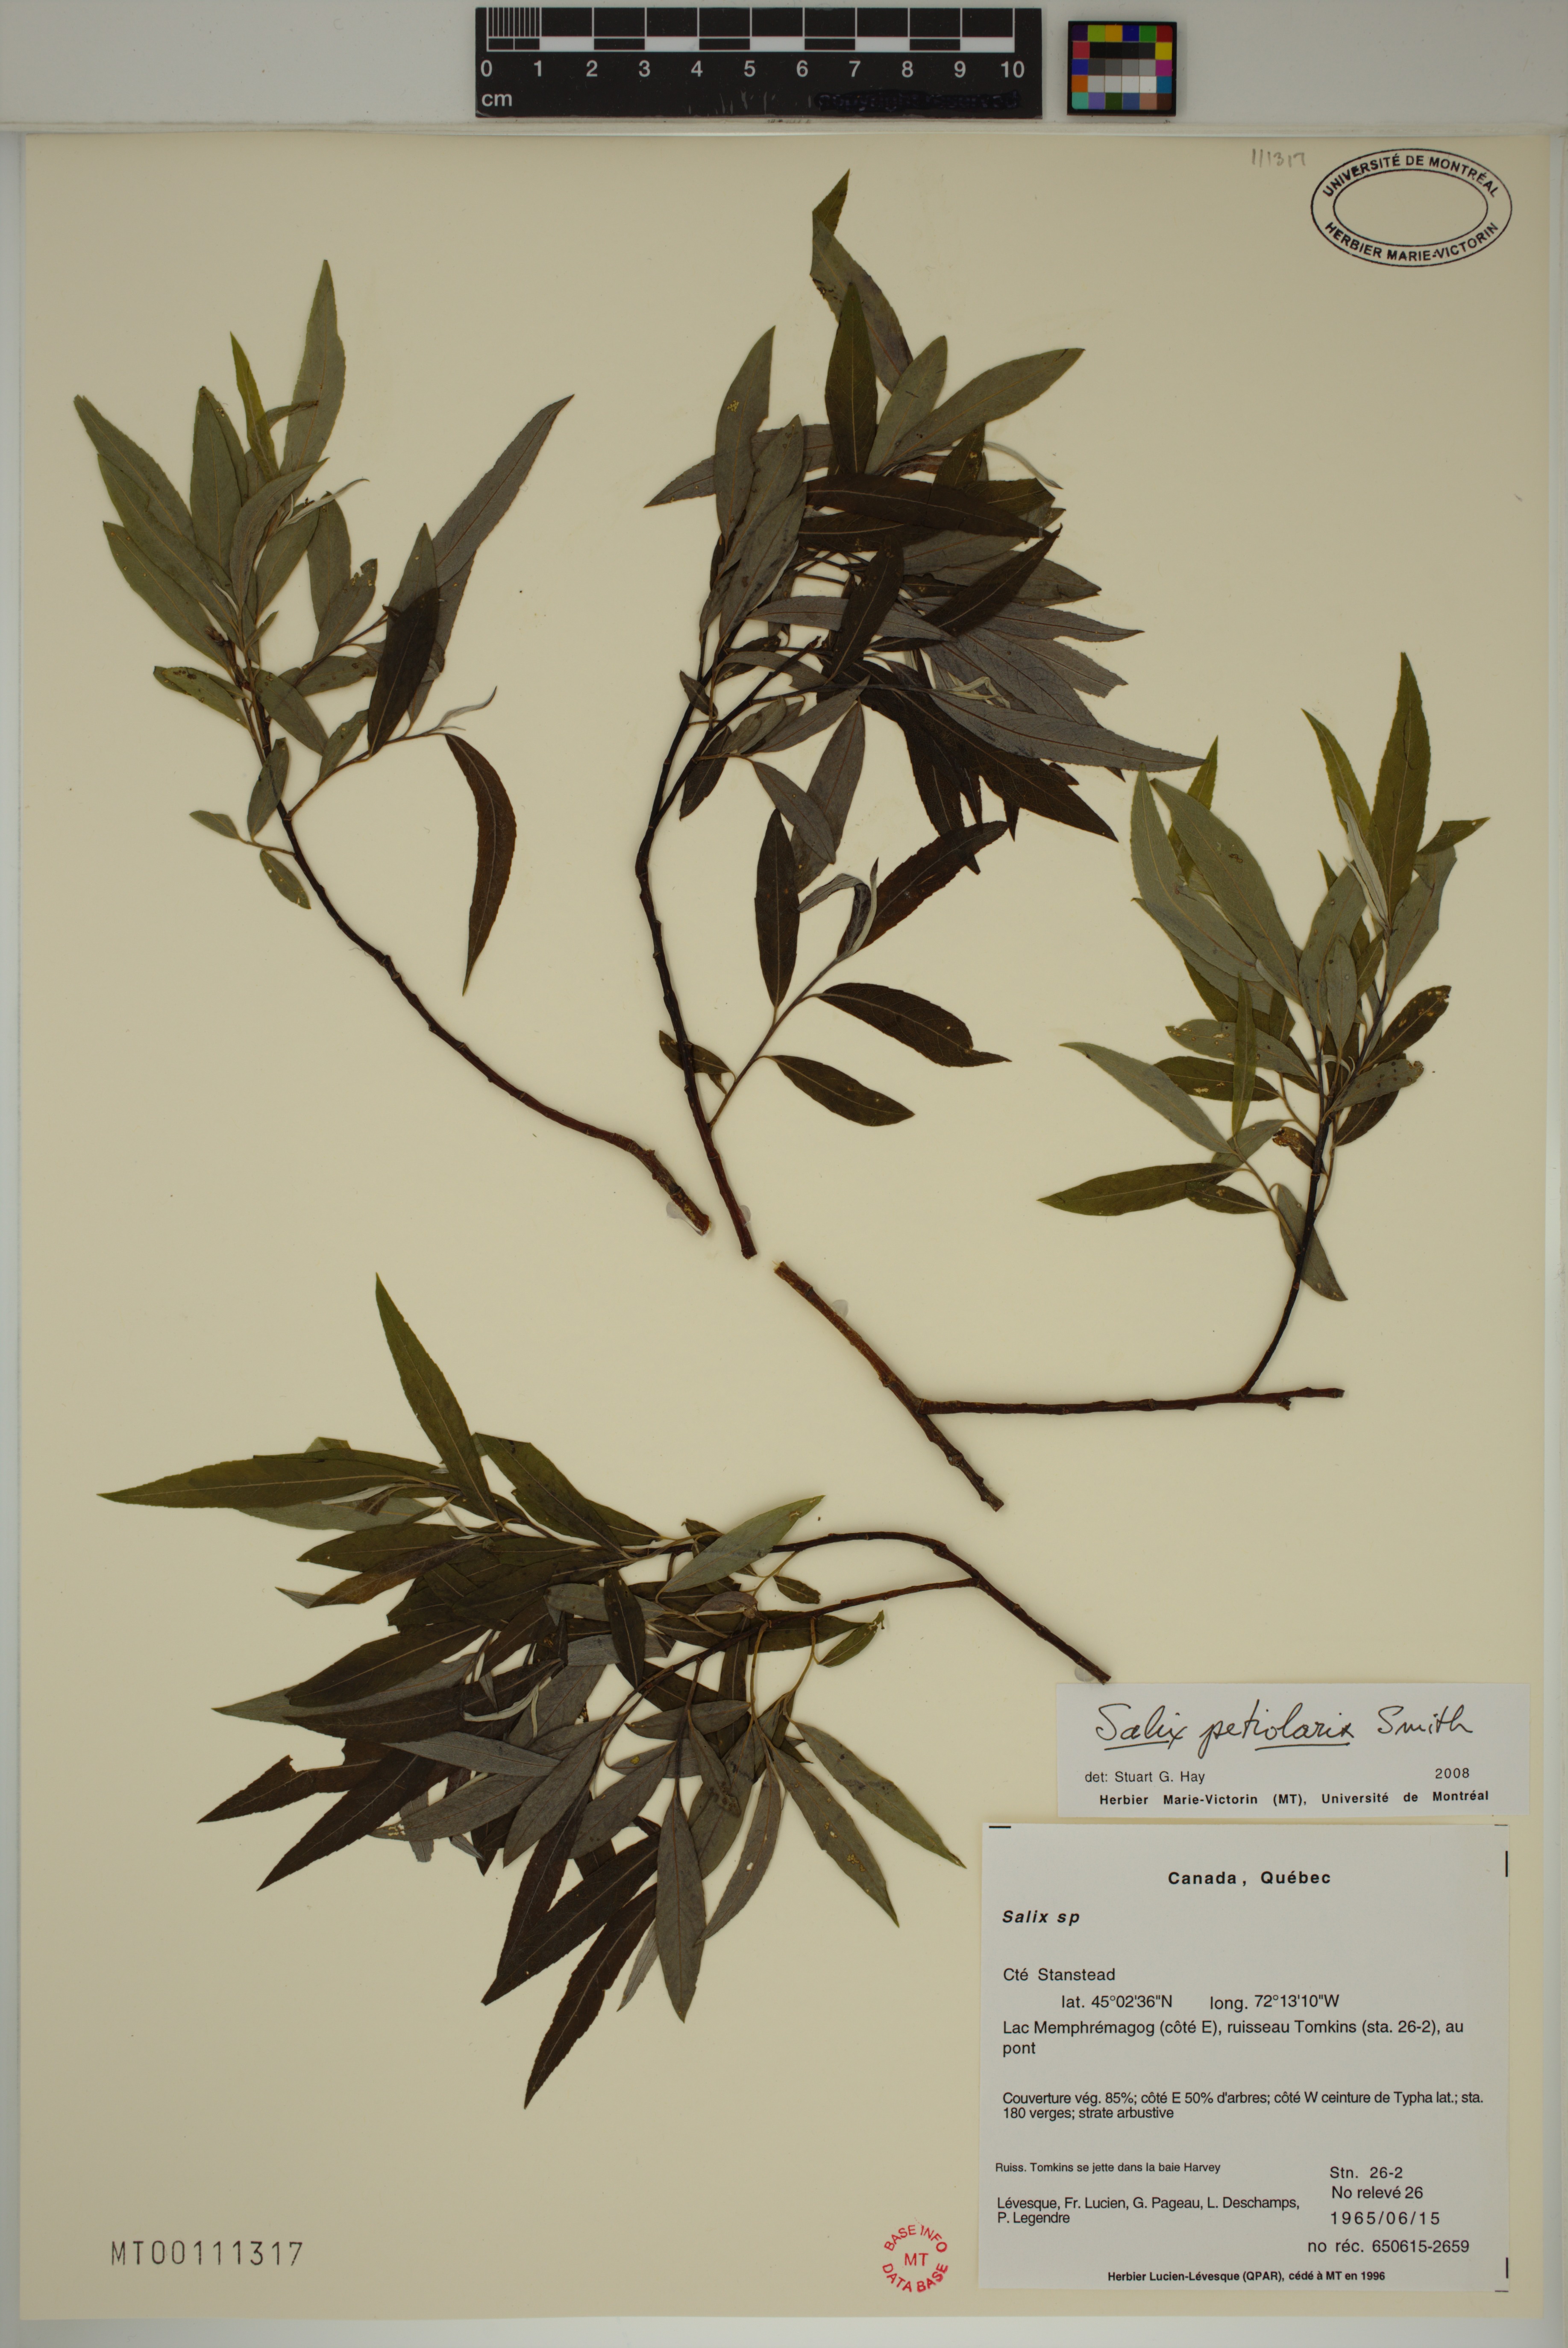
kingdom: Plantae
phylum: Tracheophyta
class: Magnoliopsida
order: Malpighiales
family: Salicaceae
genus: Salix
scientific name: Salix petiolaris
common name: Slender willow
